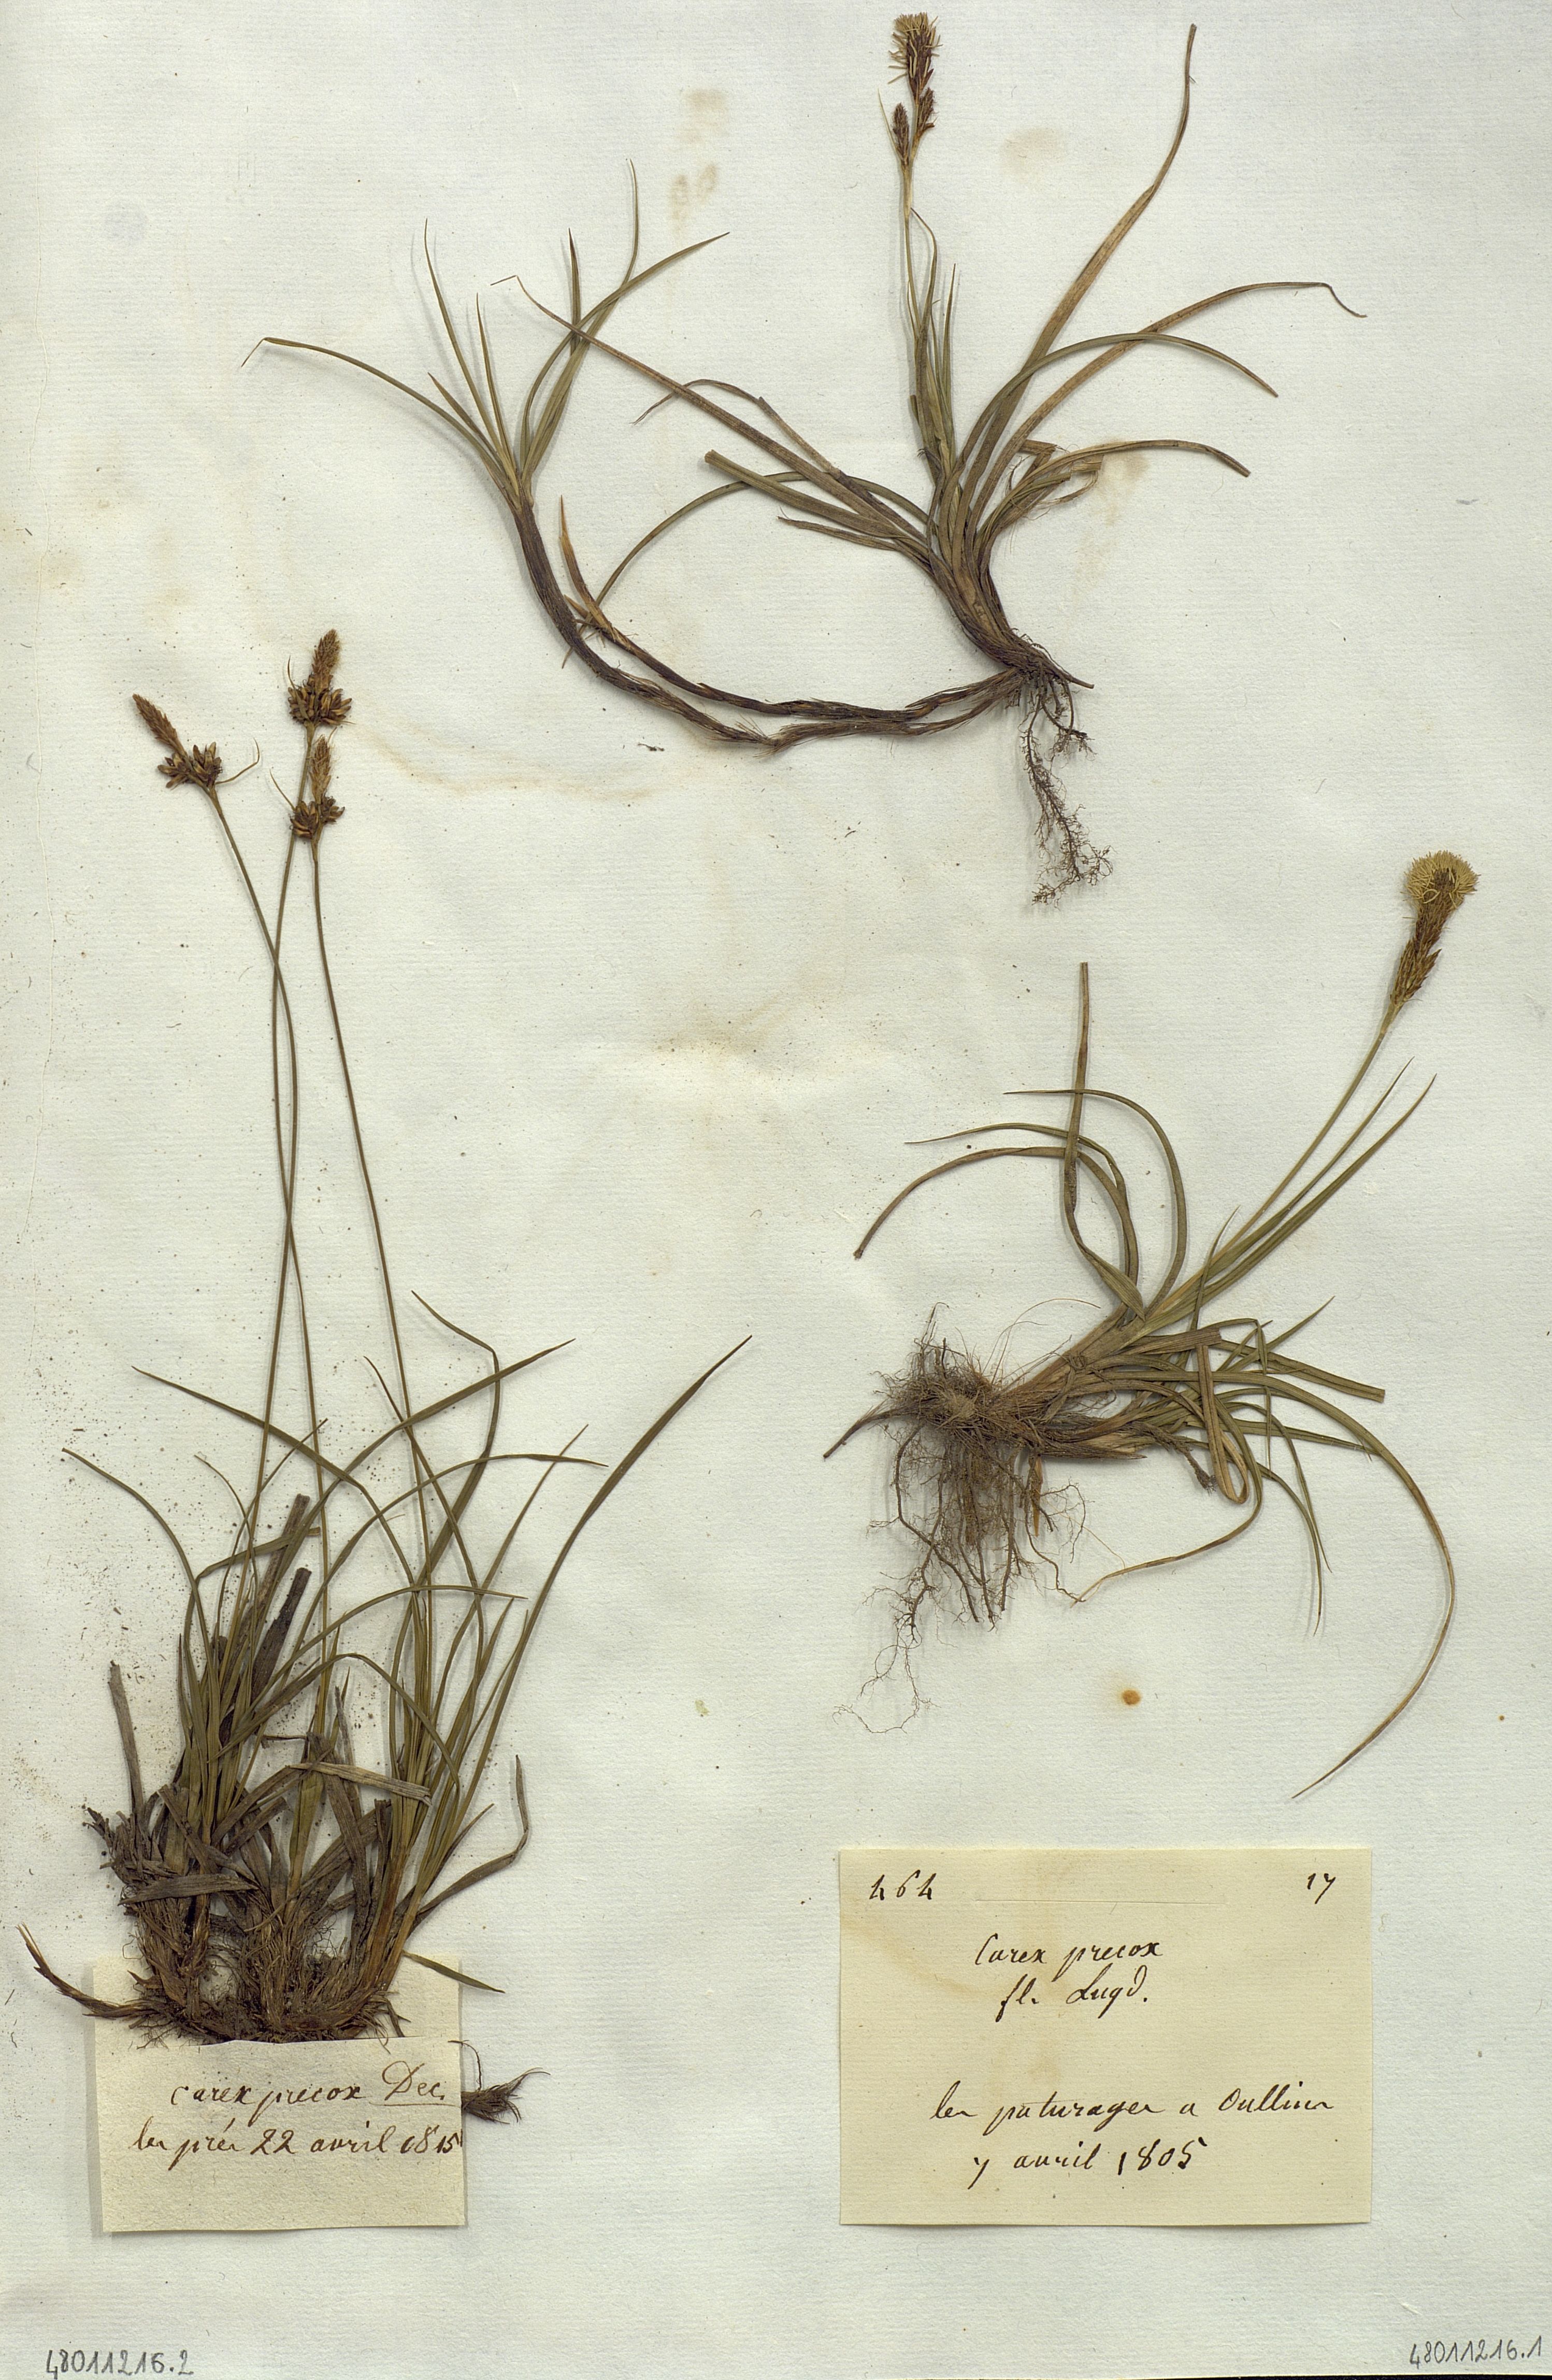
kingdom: Plantae
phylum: Tracheophyta
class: Liliopsida
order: Poales
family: Cyperaceae
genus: Carex
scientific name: Carex
